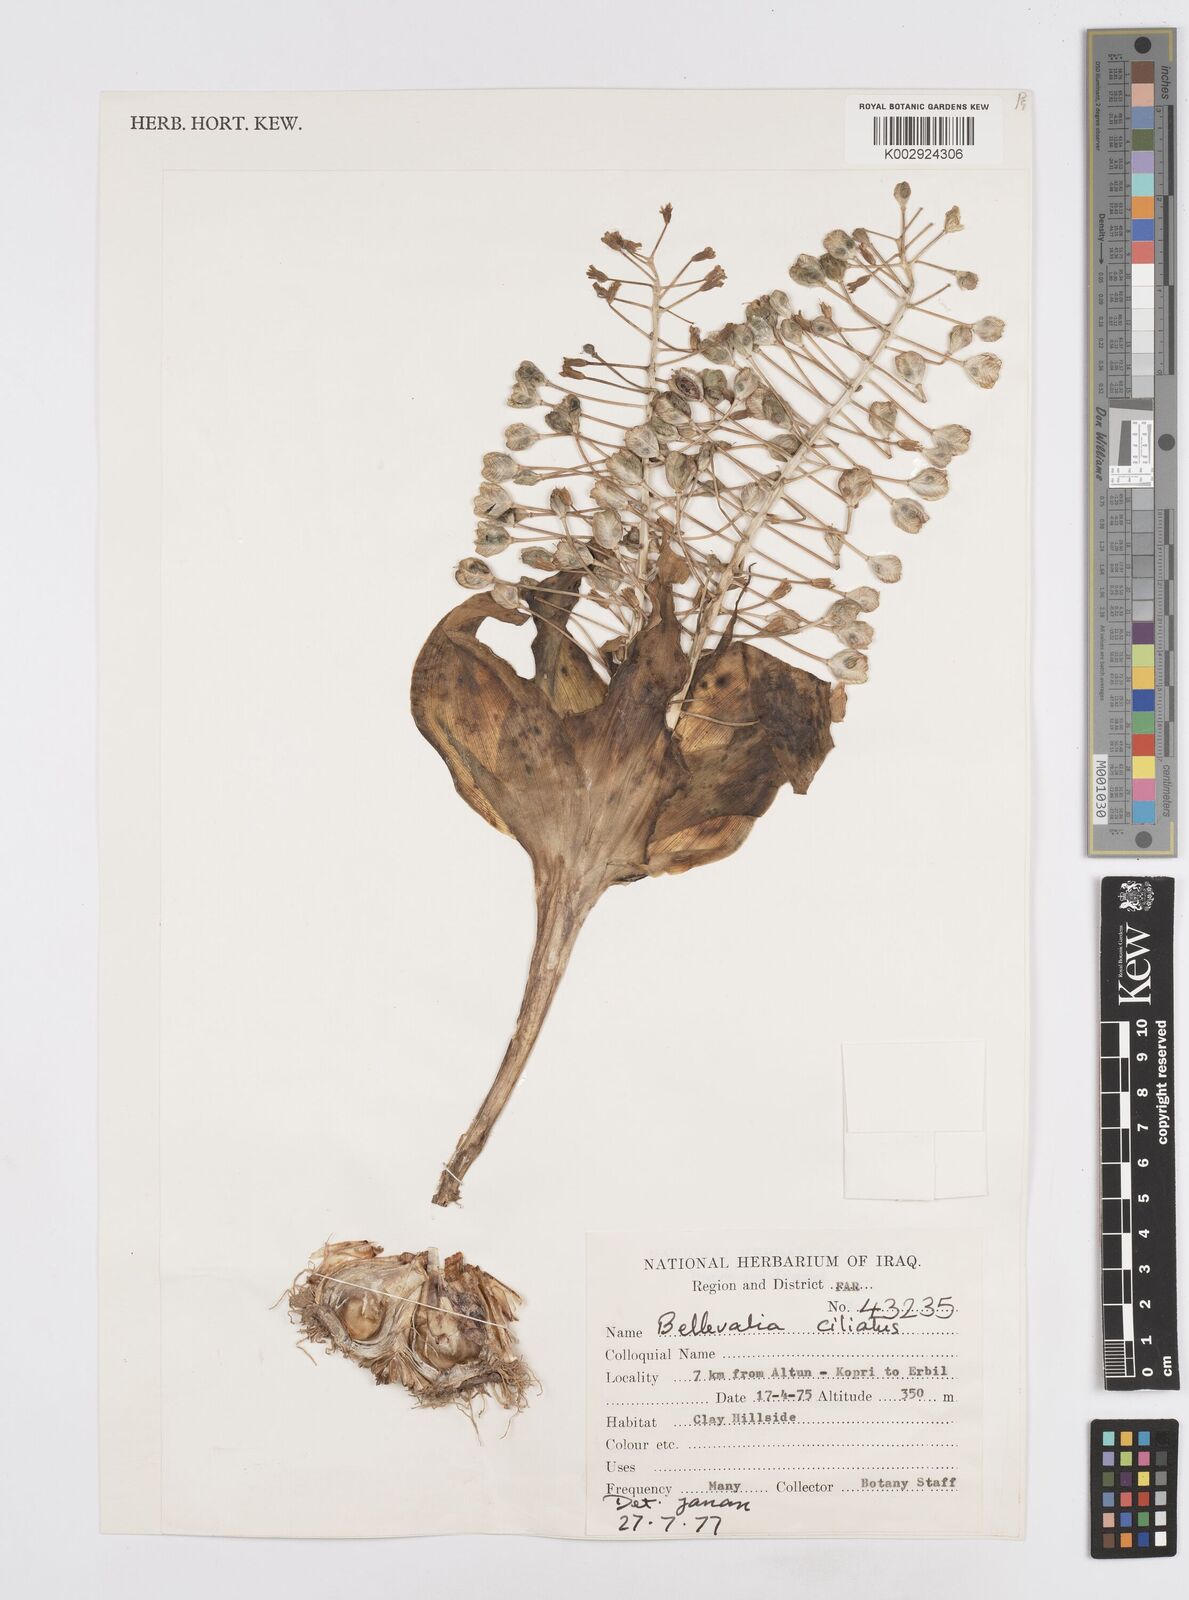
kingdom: Plantae
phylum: Tracheophyta
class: Liliopsida
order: Asparagales
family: Asparagaceae
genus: Bellevalia
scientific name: Bellevalia ciliata
